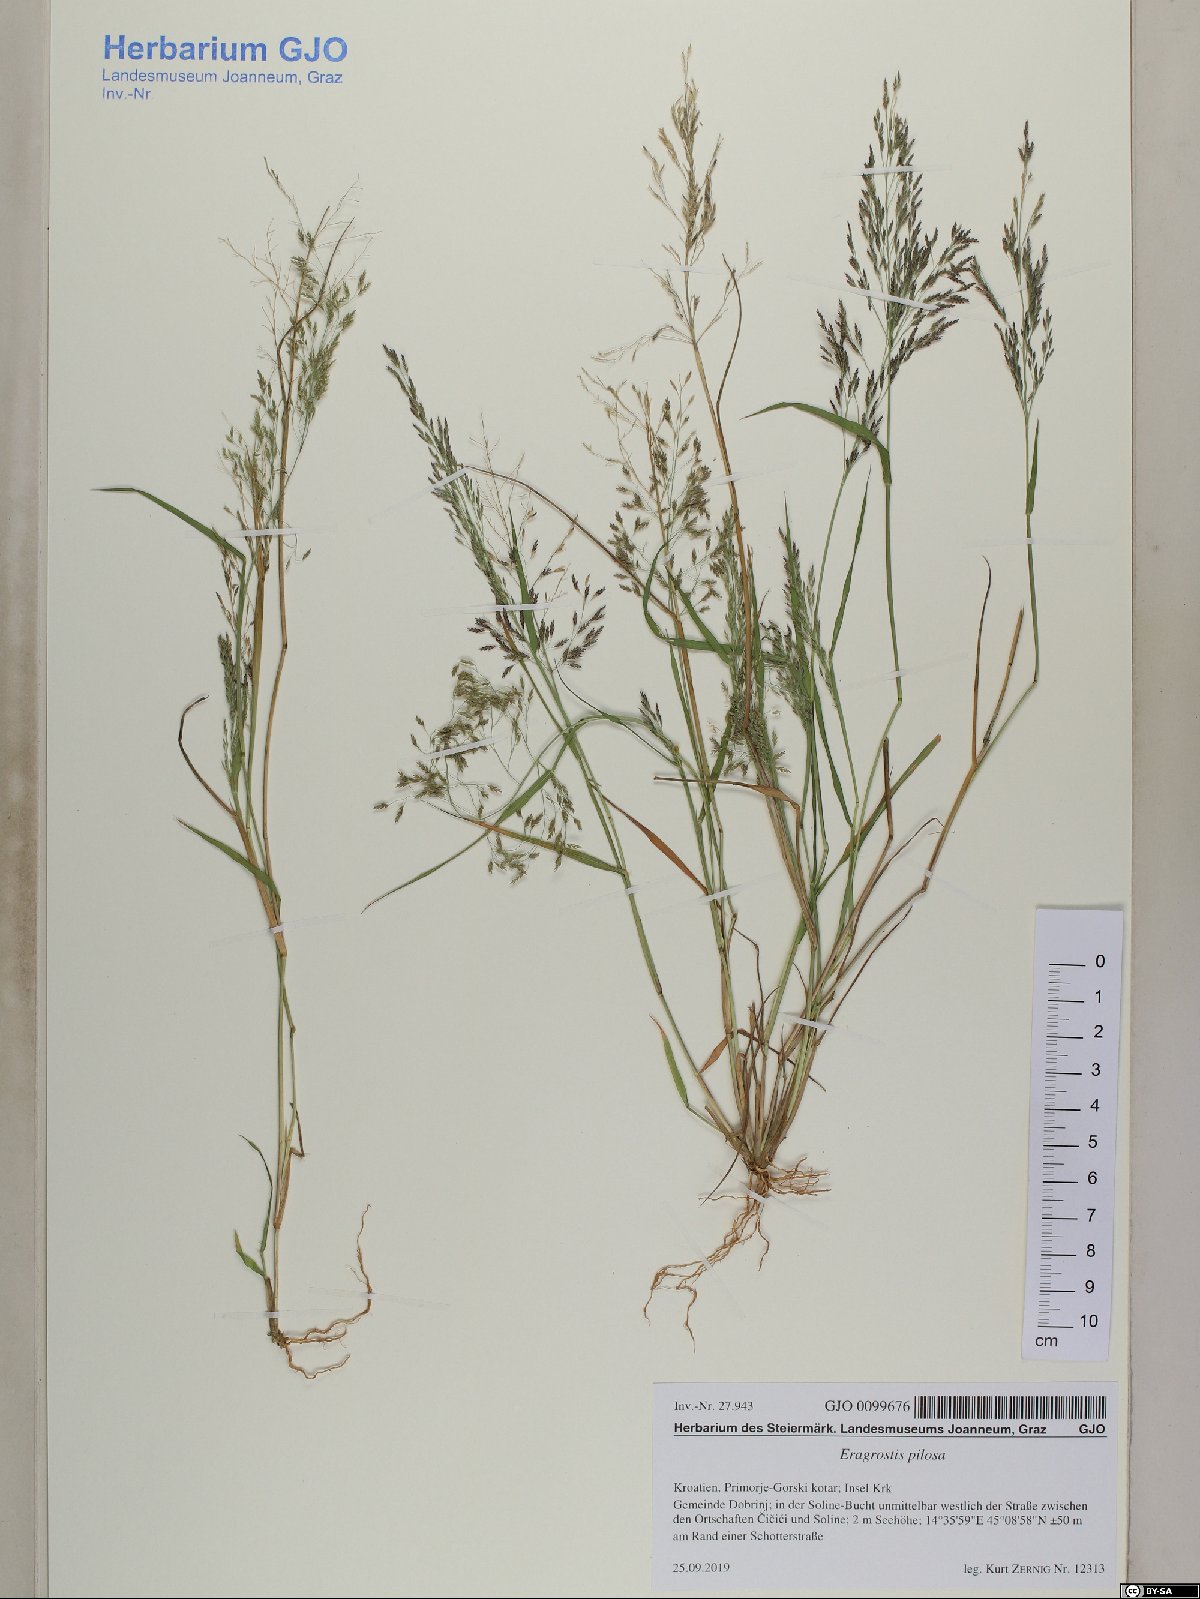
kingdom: Plantae
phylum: Tracheophyta
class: Liliopsida
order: Poales
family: Poaceae
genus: Eragrostis
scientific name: Eragrostis pilosa
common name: Indian lovegrass
